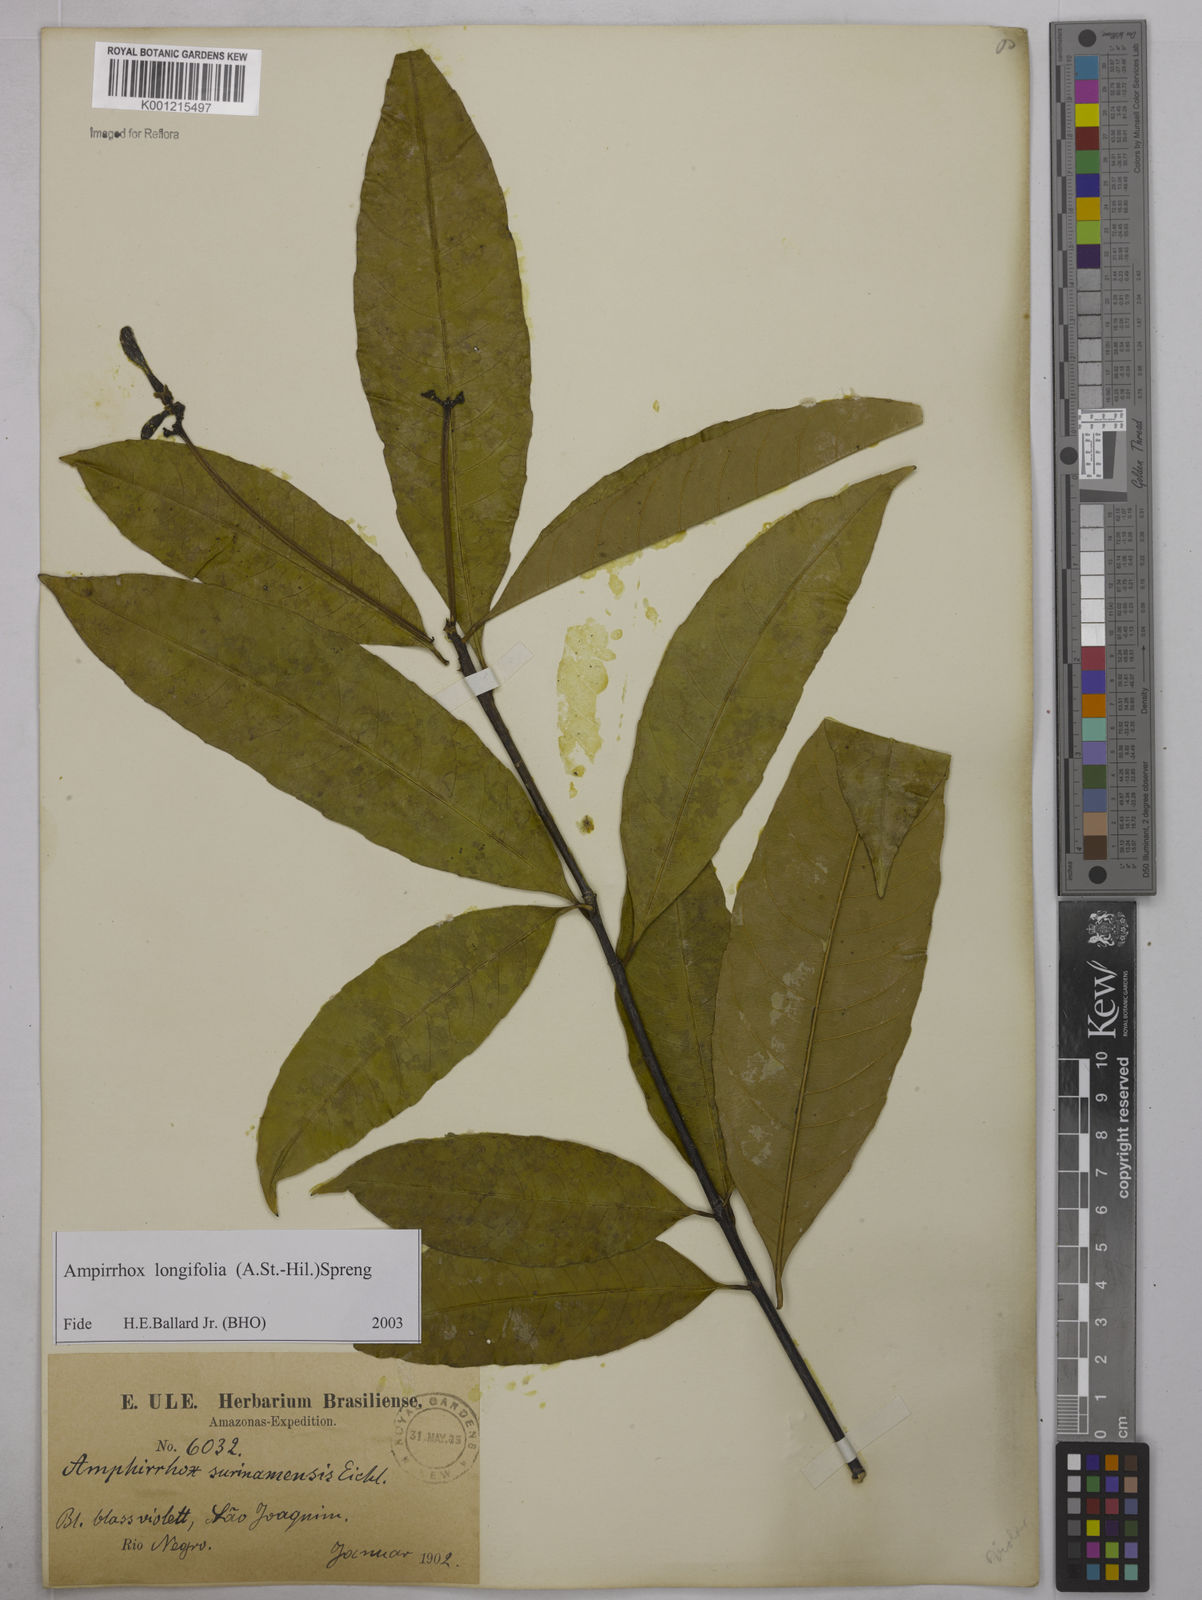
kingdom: Plantae
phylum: Tracheophyta
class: Magnoliopsida
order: Malpighiales
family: Violaceae
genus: Amphirrhox
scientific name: Amphirrhox longifolia
